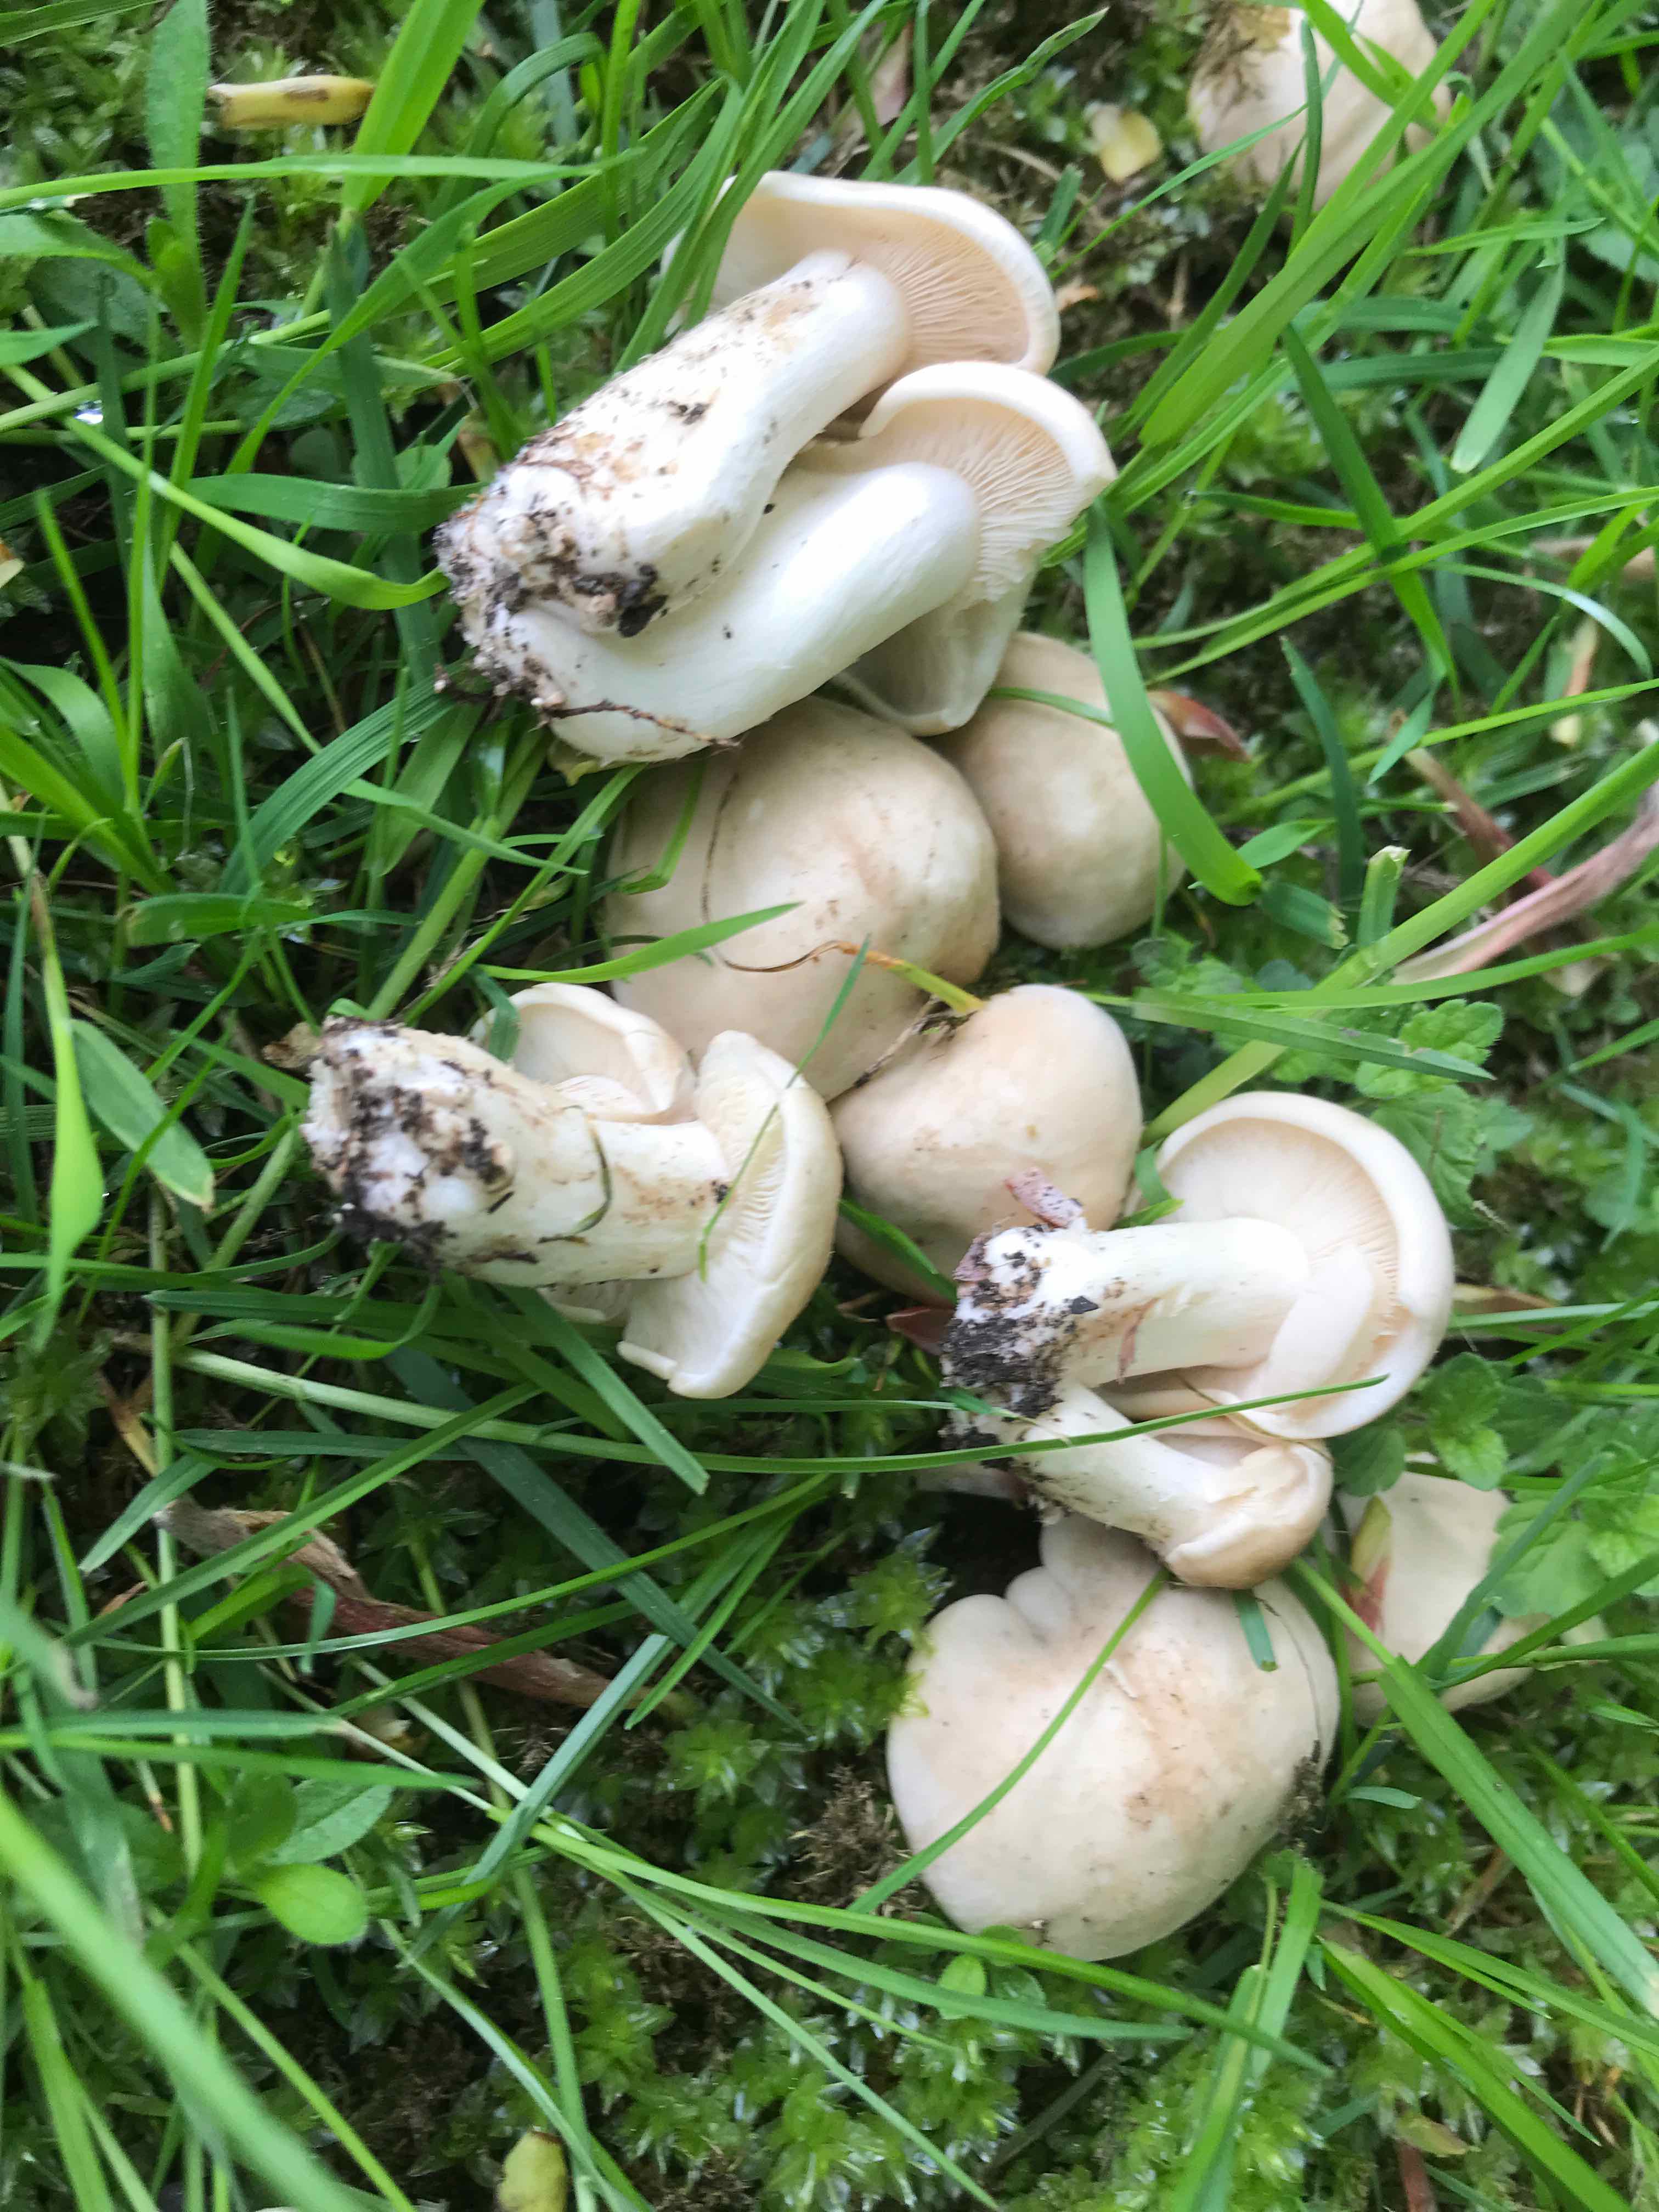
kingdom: Fungi
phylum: Basidiomycota
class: Agaricomycetes
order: Agaricales
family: Lyophyllaceae
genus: Calocybe
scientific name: Calocybe gambosa
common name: vårmusseron
